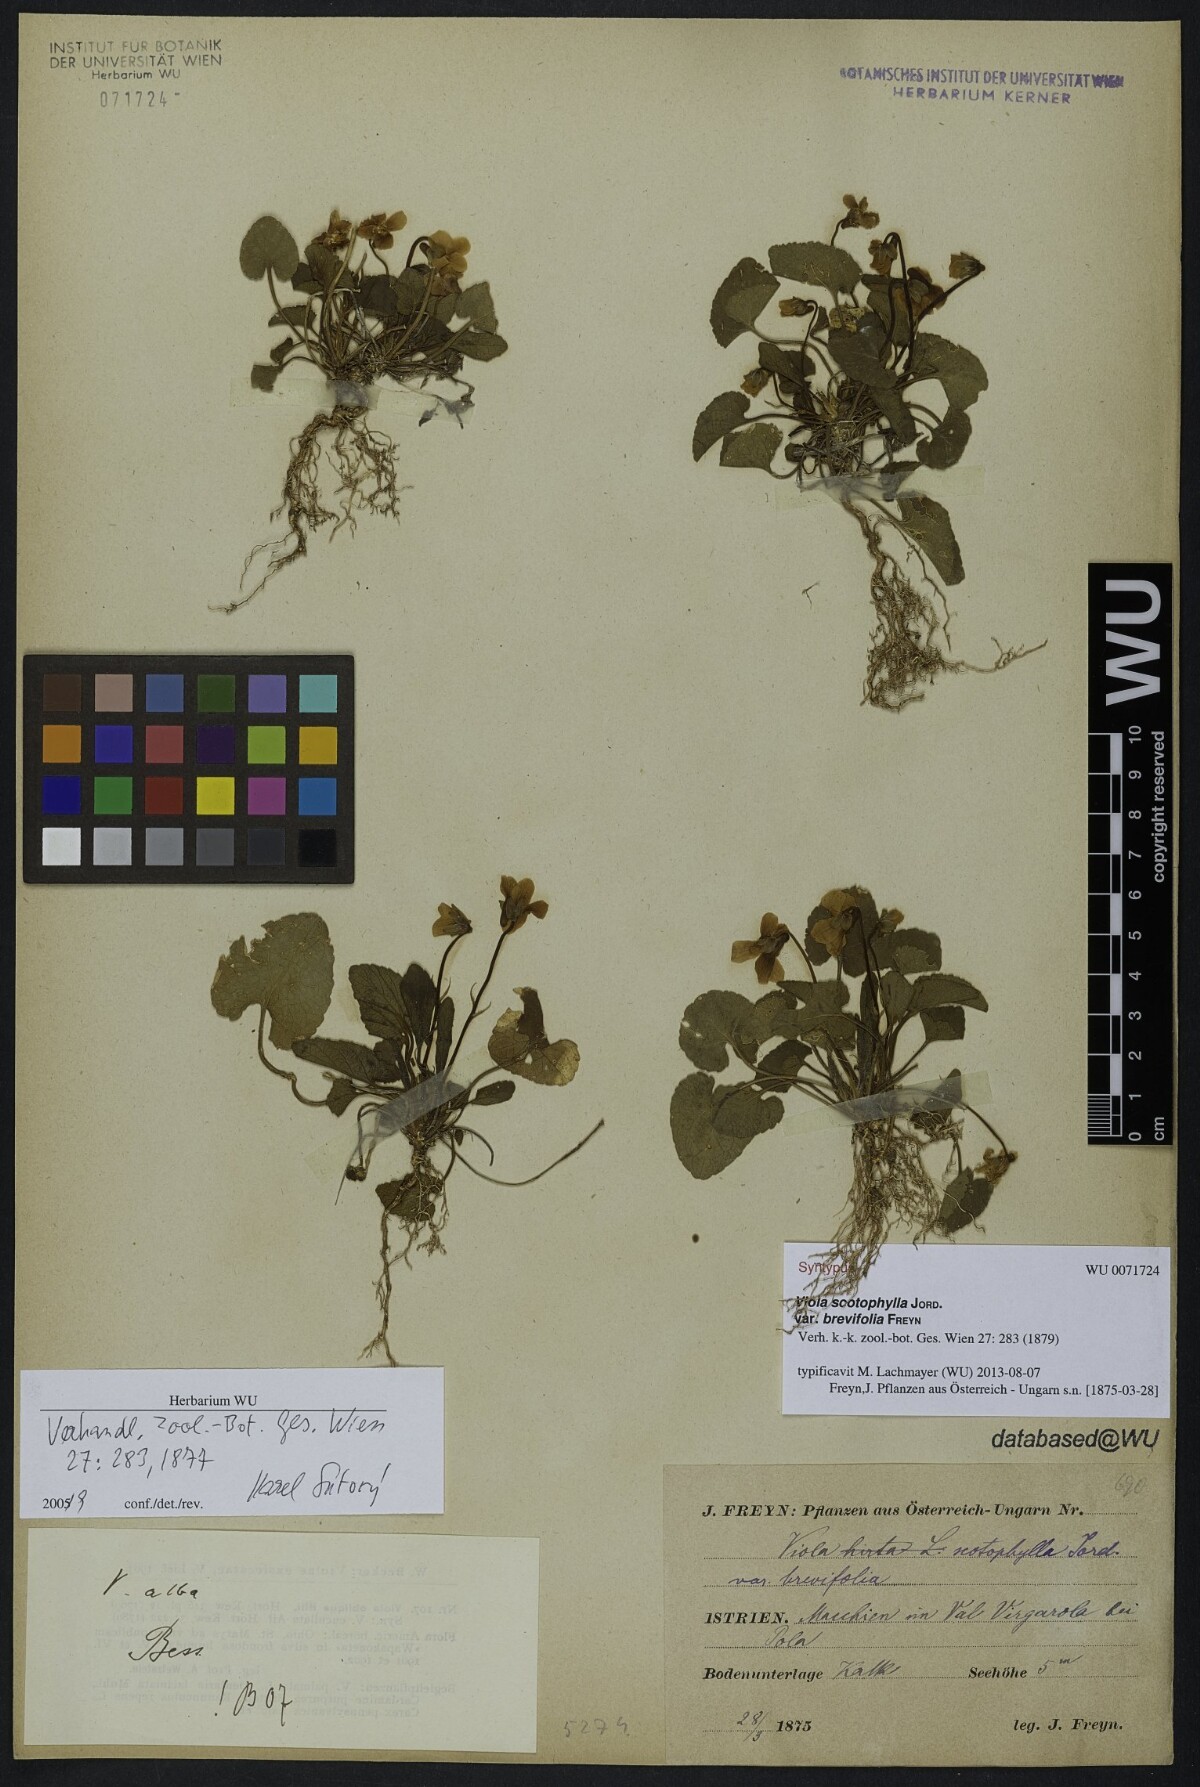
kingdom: Plantae
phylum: Tracheophyta
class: Magnoliopsida
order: Malpighiales
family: Violaceae
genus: Viola
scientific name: Viola alba
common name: White violet
